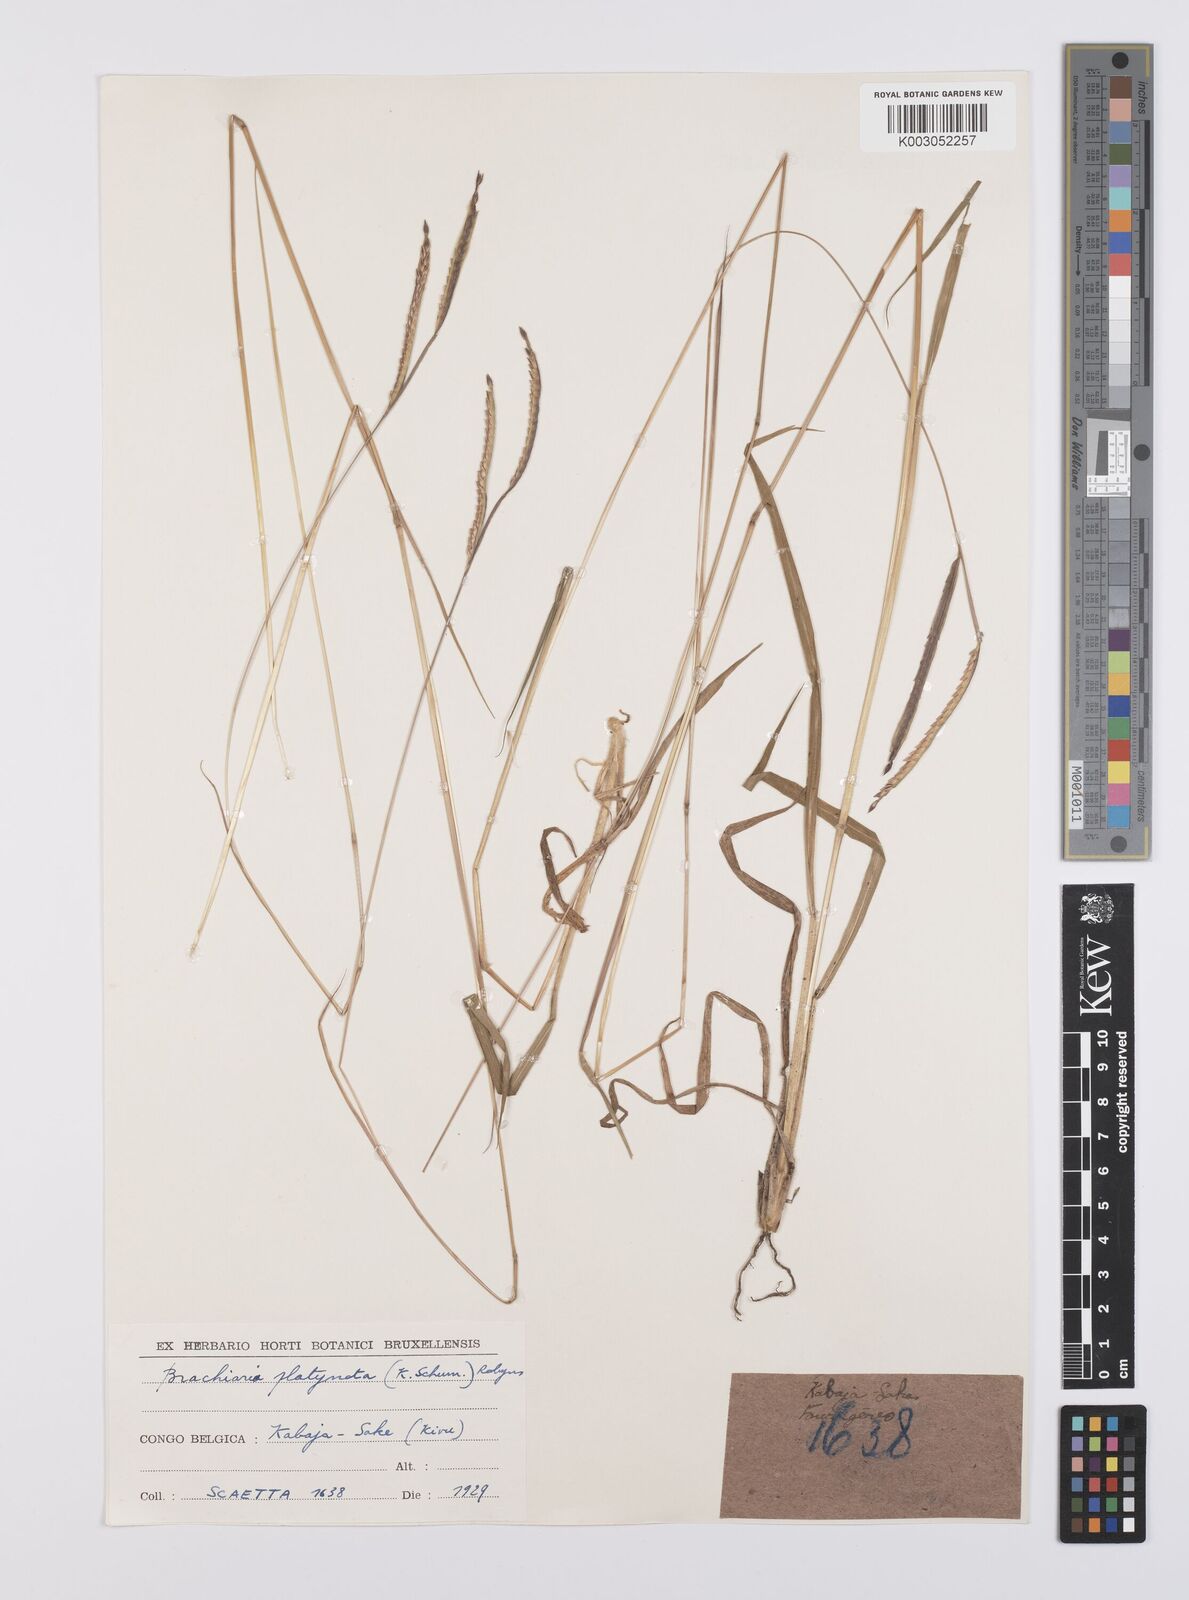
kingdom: Plantae
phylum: Tracheophyta
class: Liliopsida
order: Poales
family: Poaceae
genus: Urochloa
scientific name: Urochloa platynota
